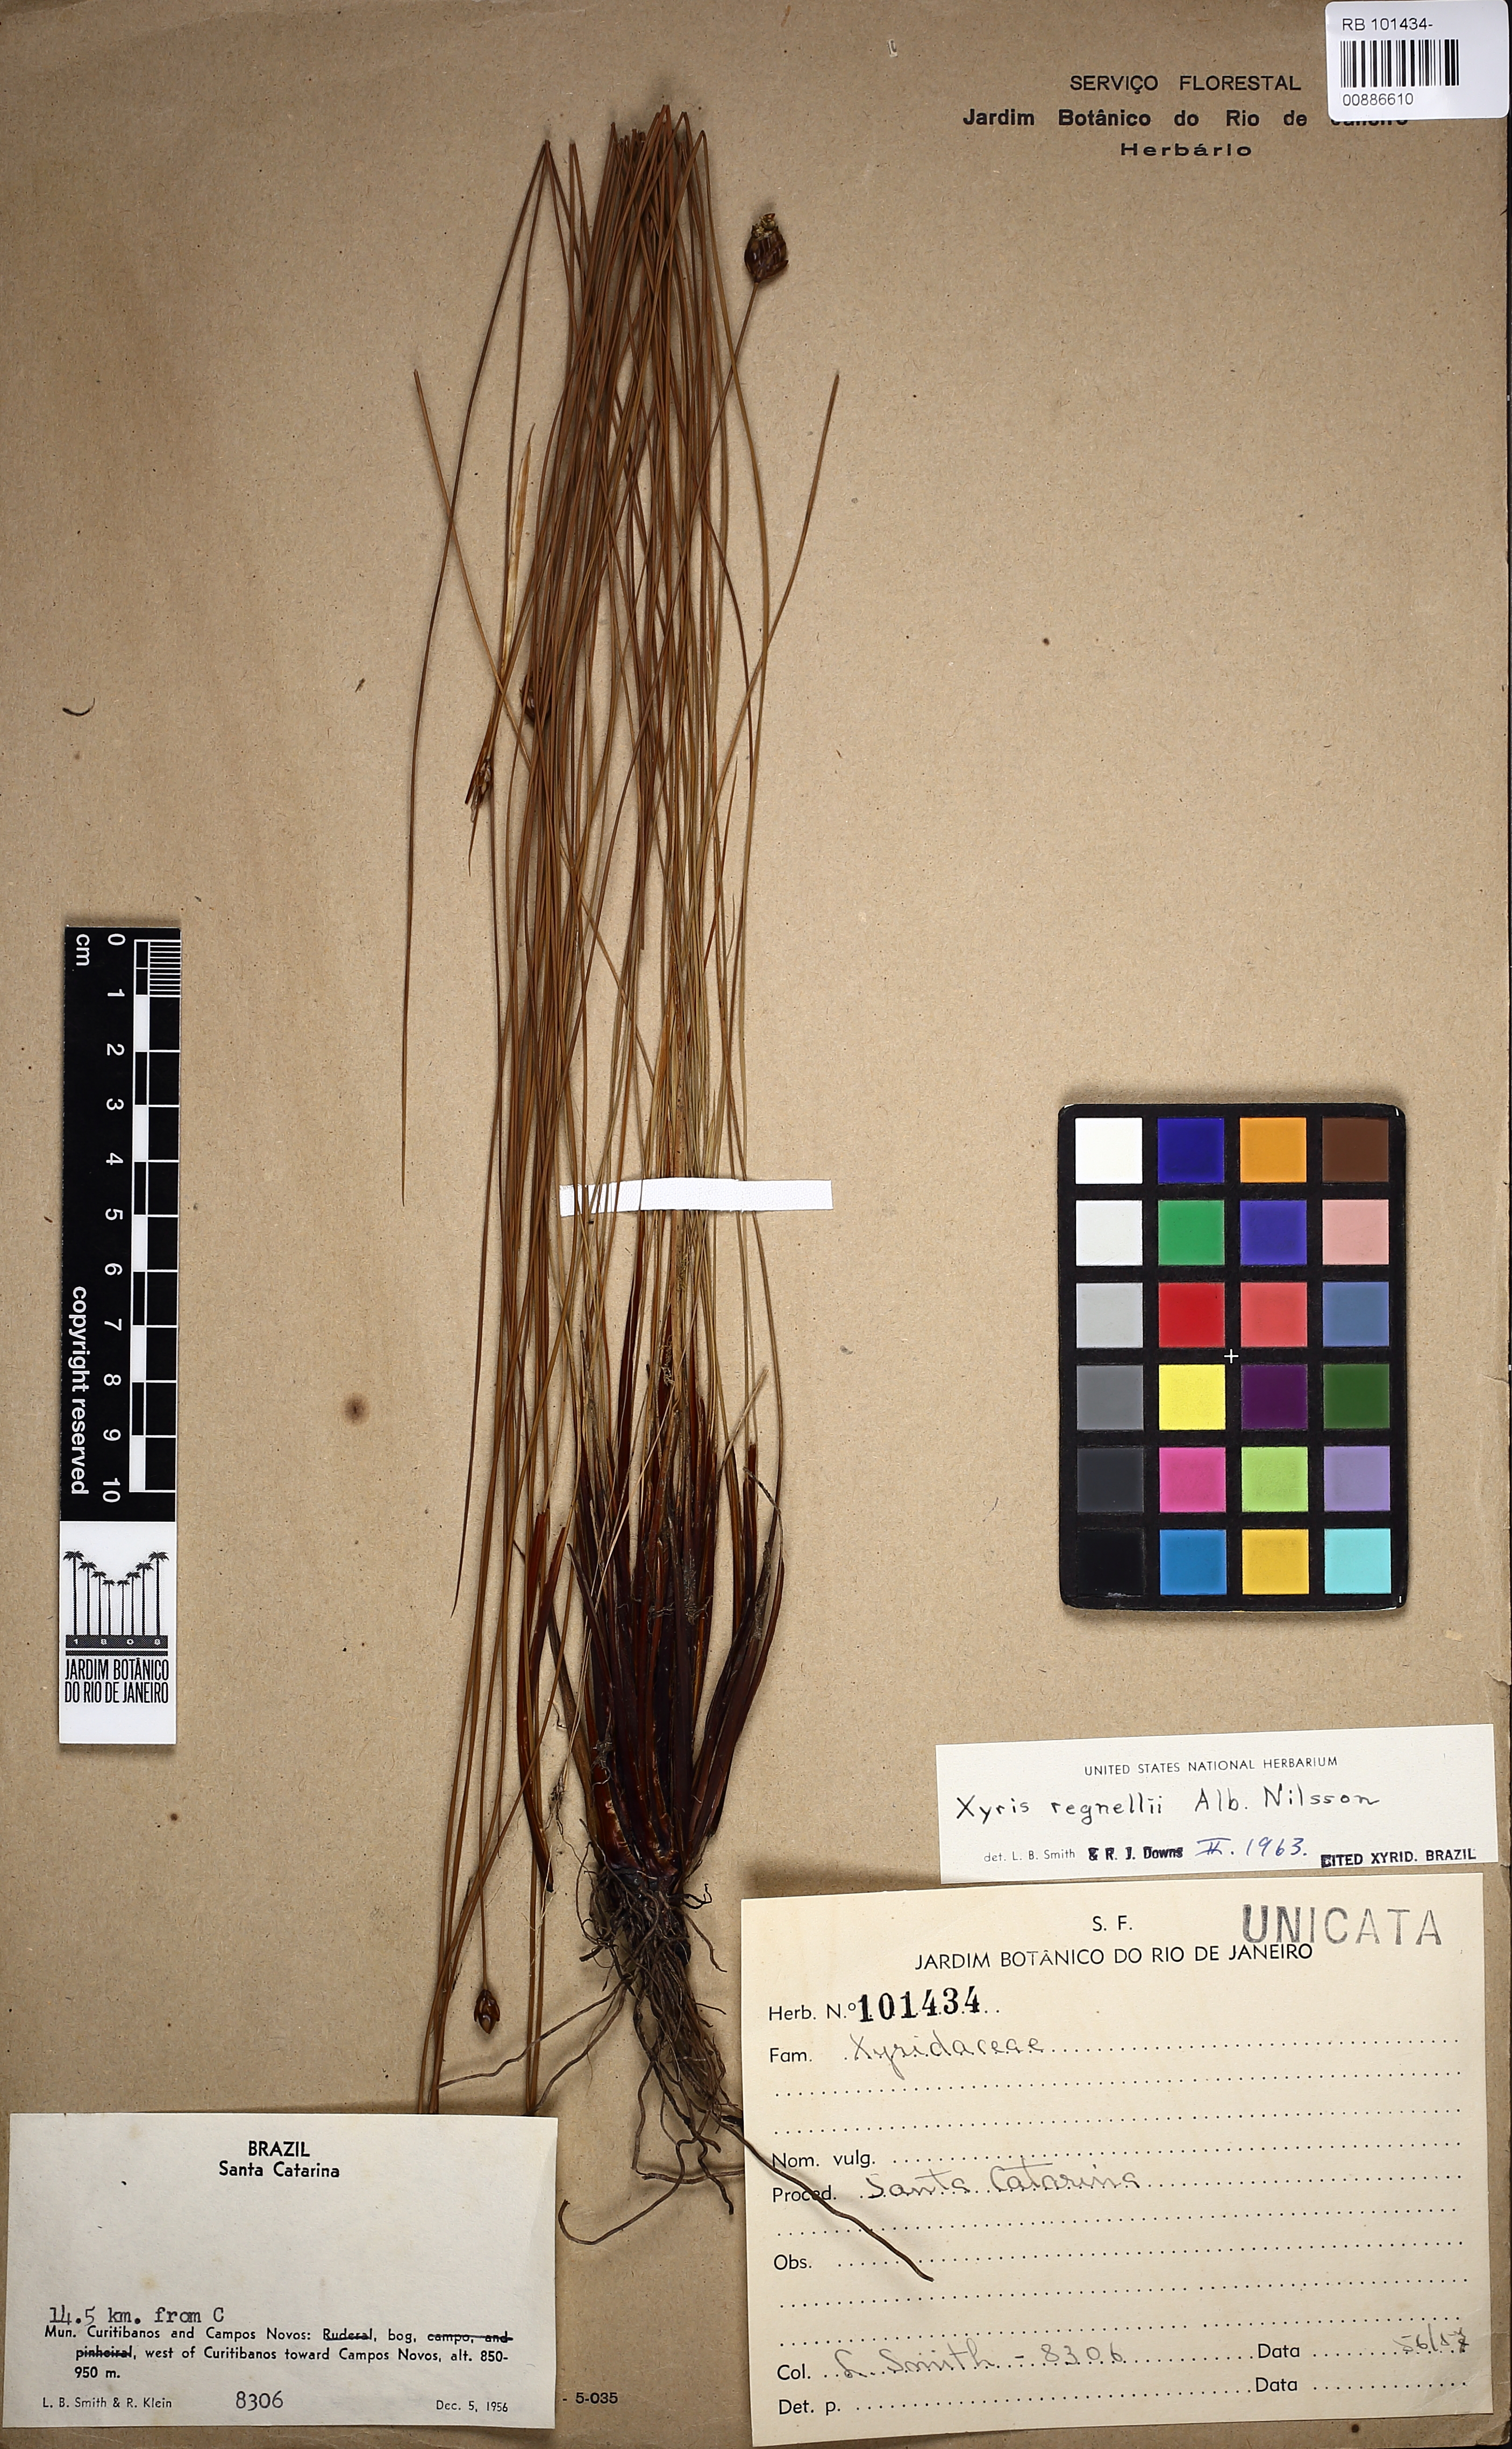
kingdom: Plantae
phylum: Tracheophyta
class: Liliopsida
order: Poales
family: Xyridaceae
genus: Xyris
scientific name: Xyris regnellii
